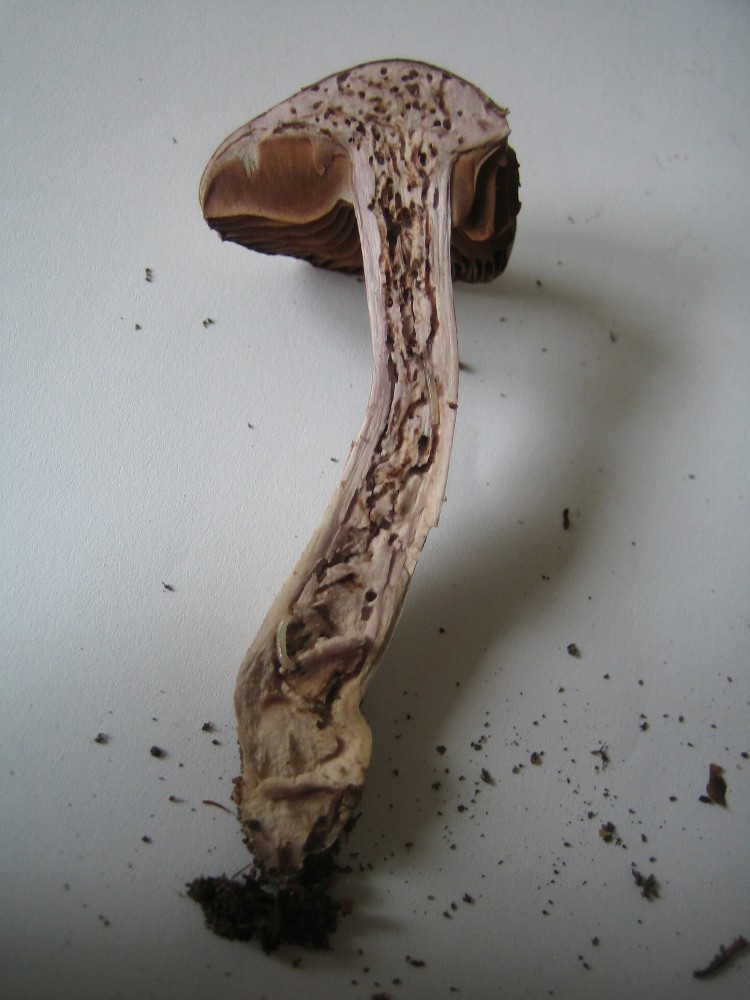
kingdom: Fungi
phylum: Basidiomycota
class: Agaricomycetes
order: Agaricales
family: Cortinariaceae
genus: Cortinarius
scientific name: Cortinarius torvus
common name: champignonagtig slørhat
